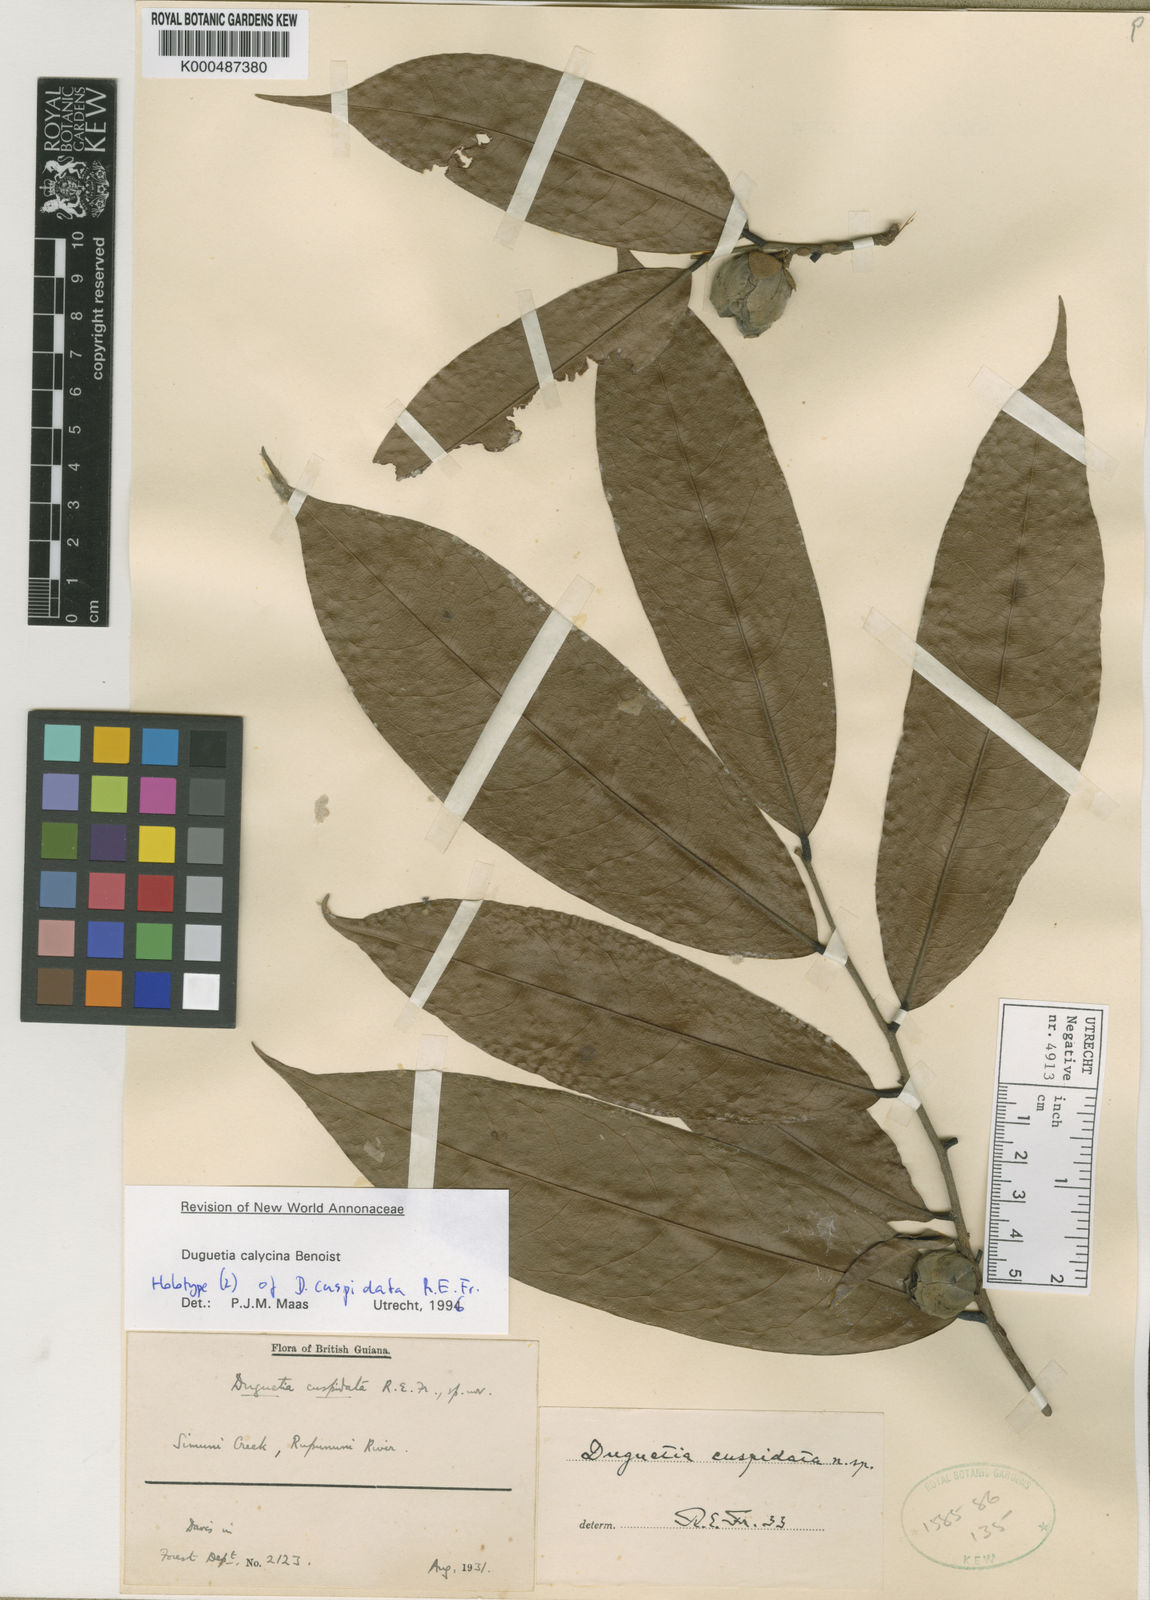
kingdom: Plantae
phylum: Tracheophyta
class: Magnoliopsida
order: Magnoliales
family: Annonaceae
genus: Duguetia
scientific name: Duguetia calycina
